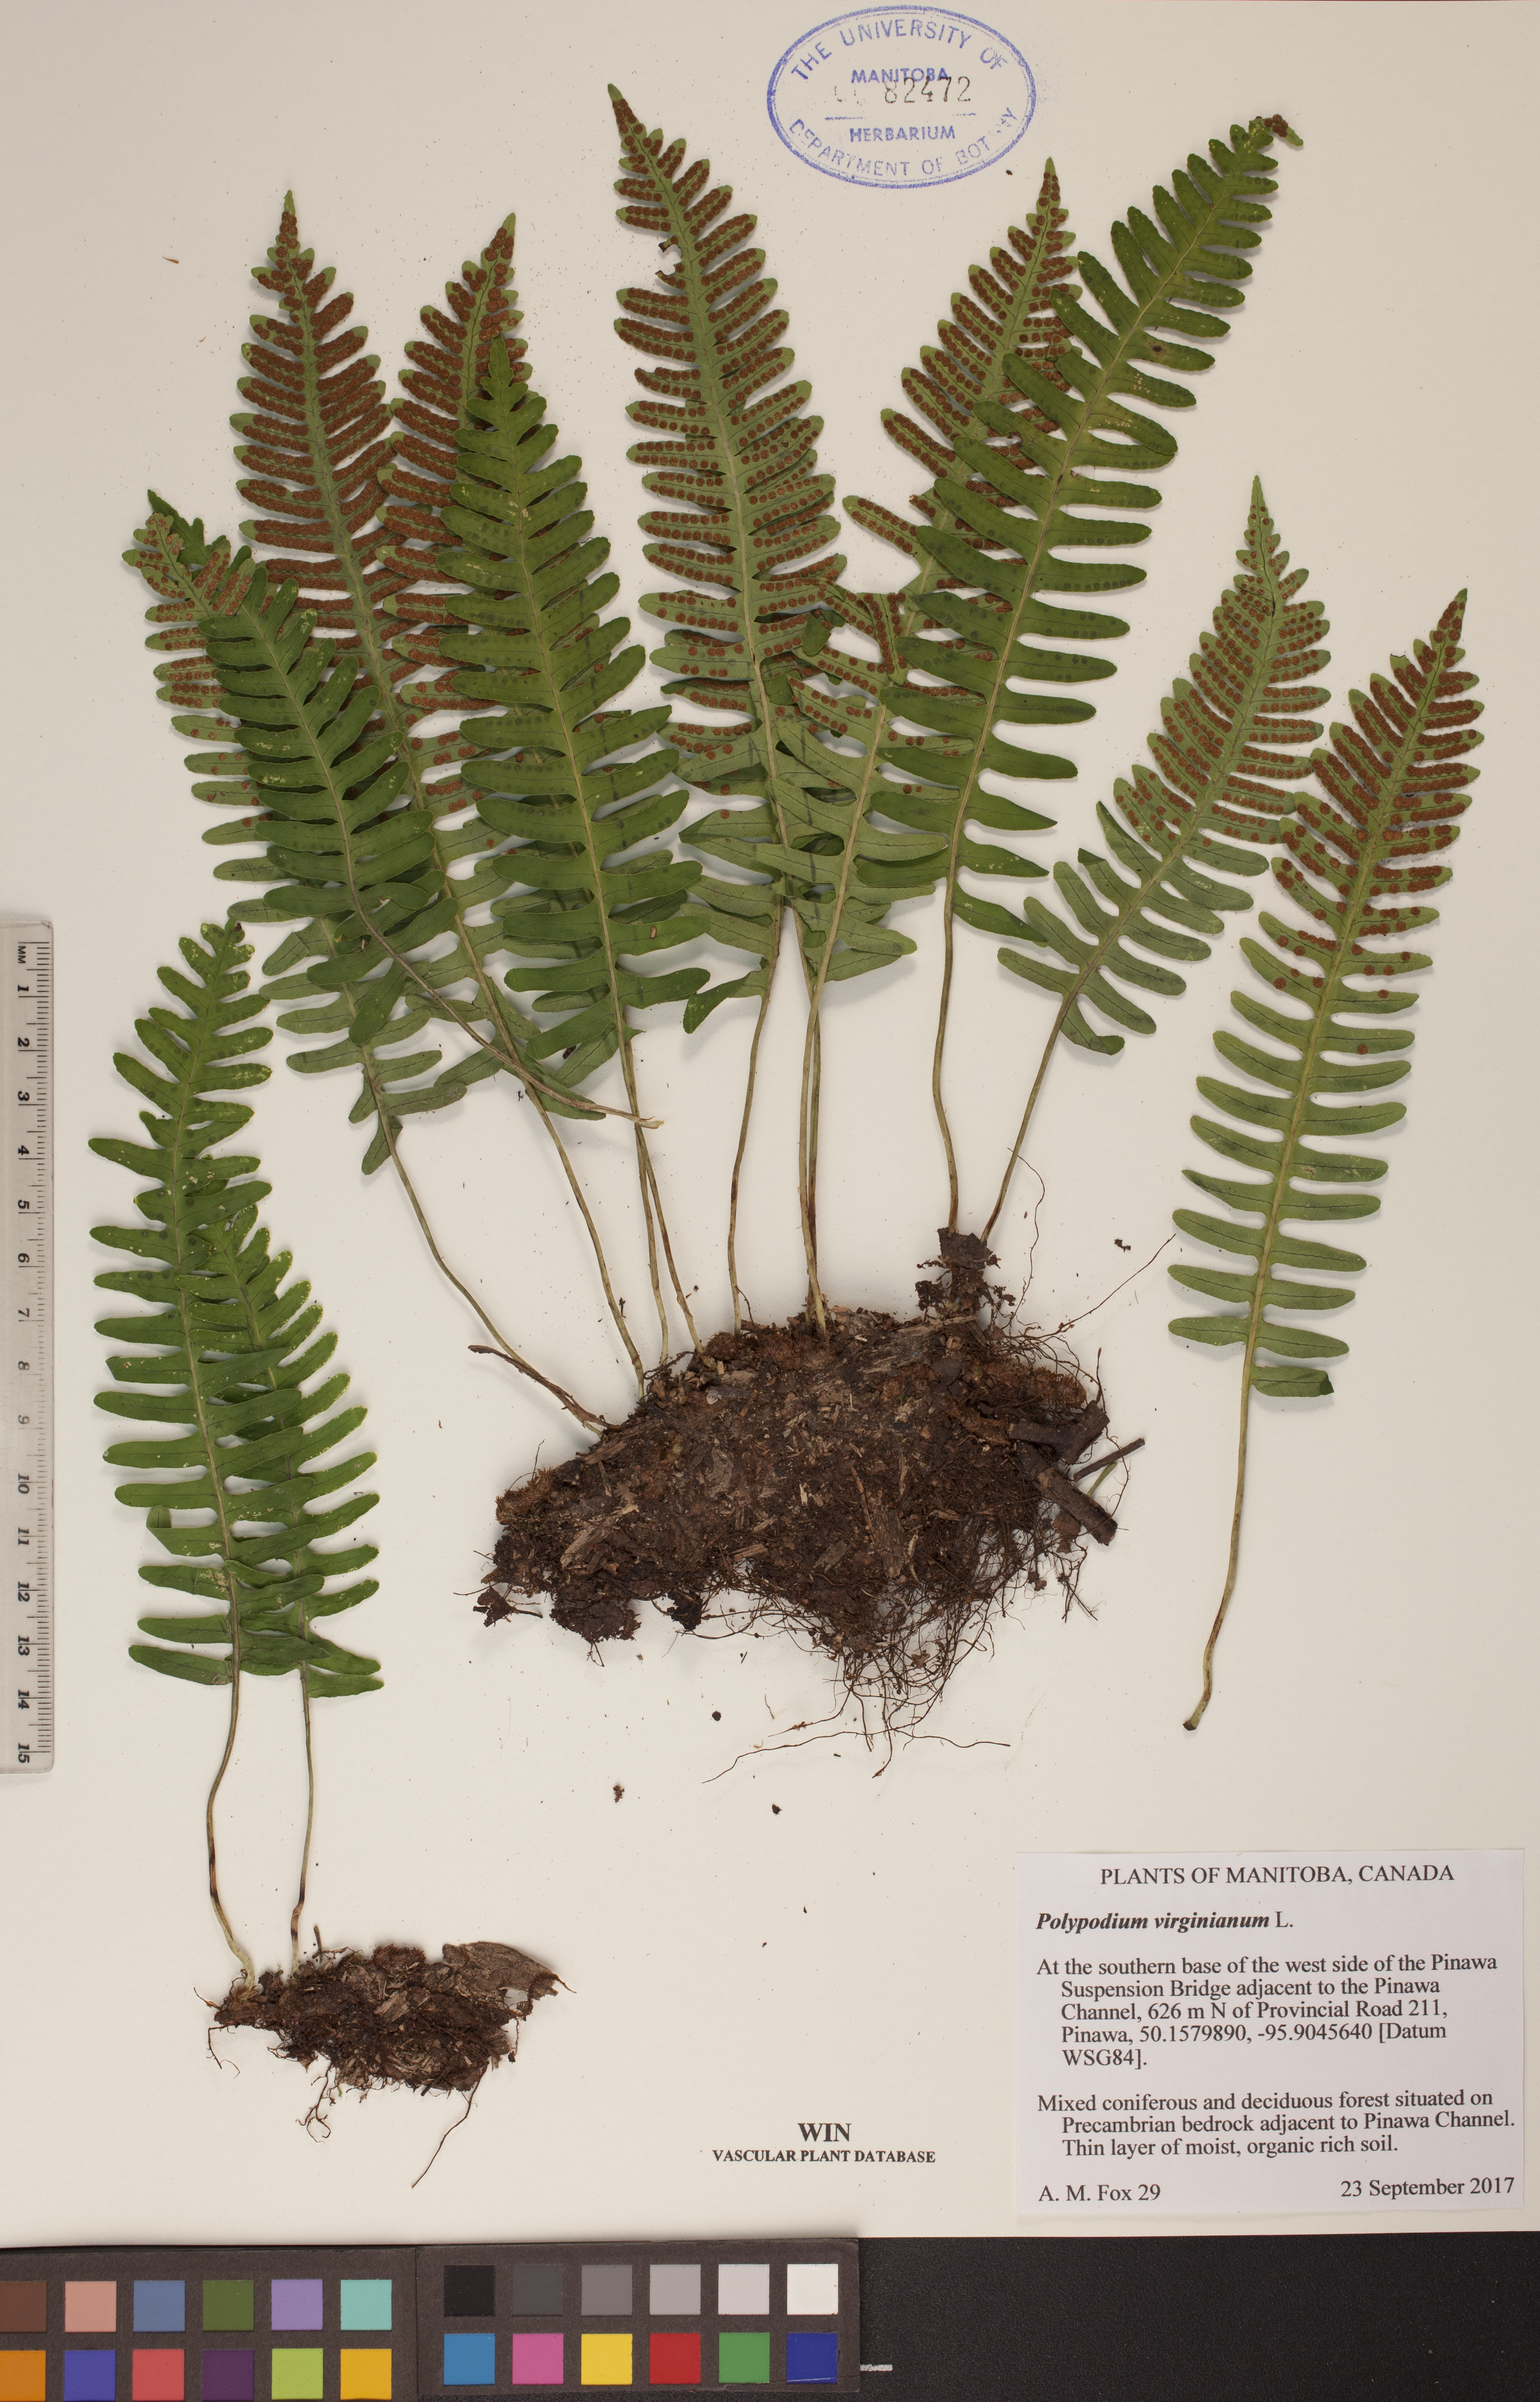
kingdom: Plantae
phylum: Tracheophyta
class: Polypodiopsida
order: Polypodiales
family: Polypodiaceae
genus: Polypodium
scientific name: Polypodium virginianum
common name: American wall fern
